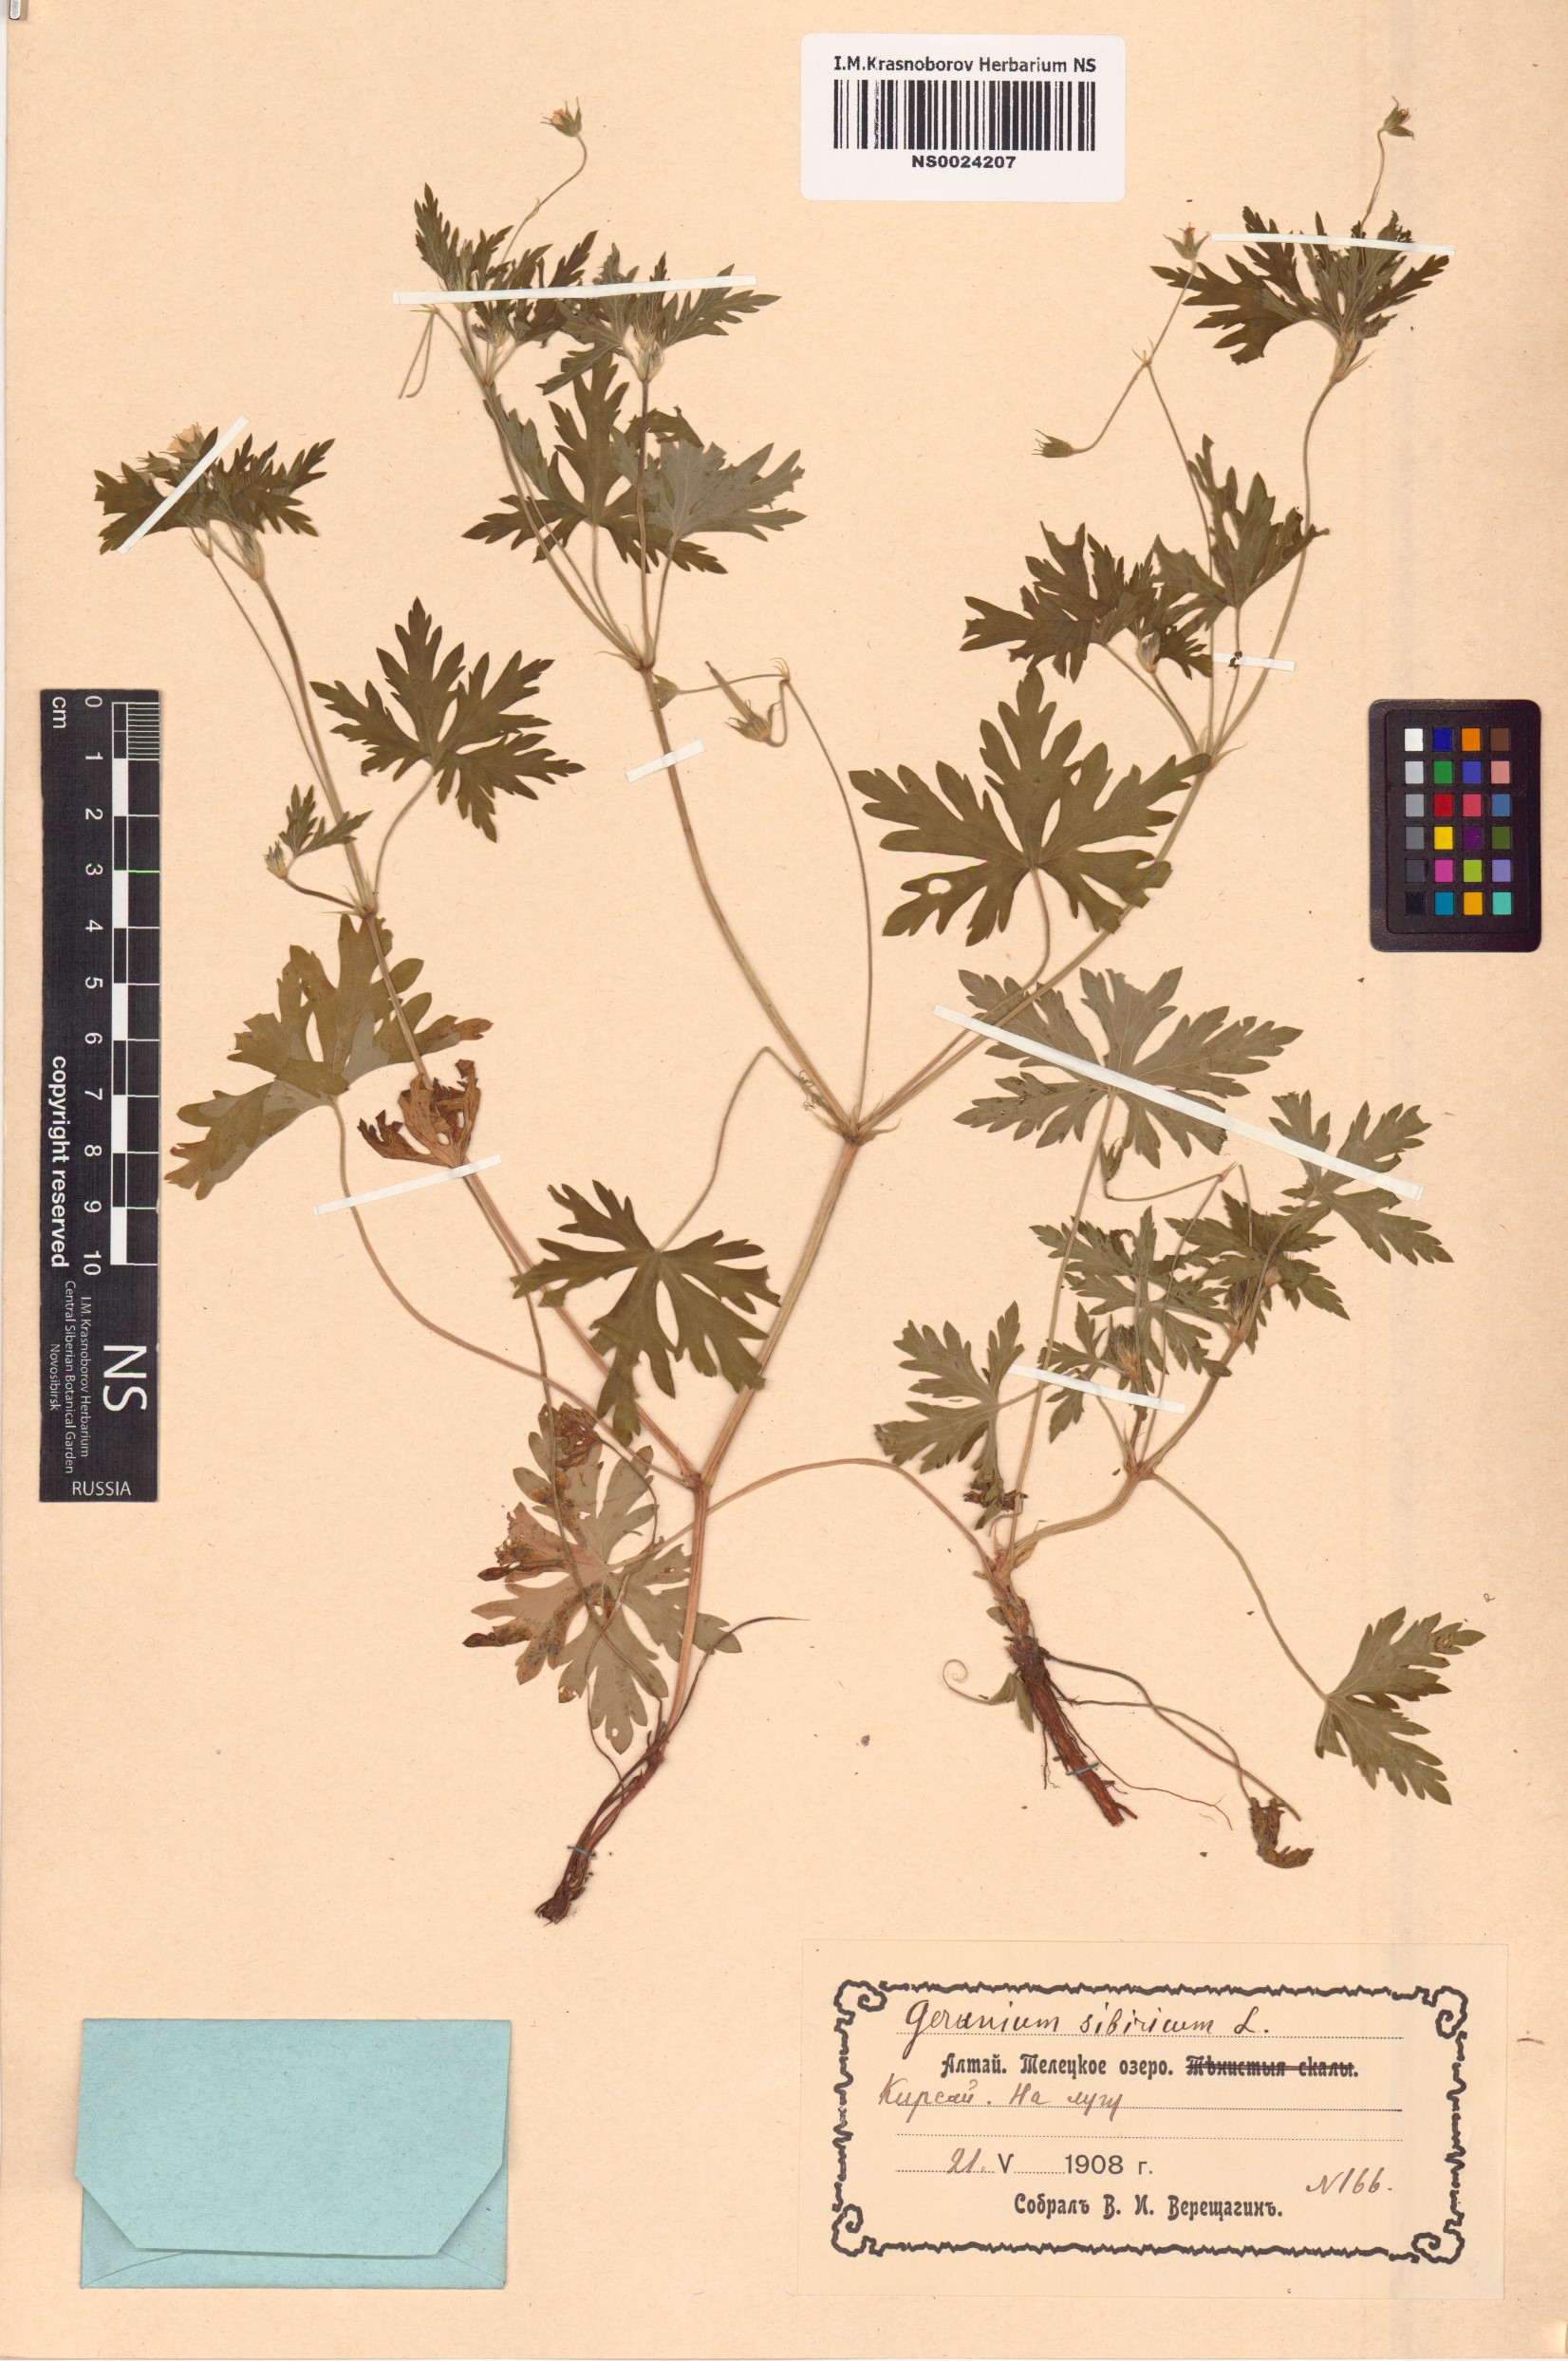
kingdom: Plantae
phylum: Tracheophyta
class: Magnoliopsida
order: Geraniales
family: Geraniaceae
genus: Geranium
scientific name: Geranium sibiricum
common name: Siberian crane's-bill
